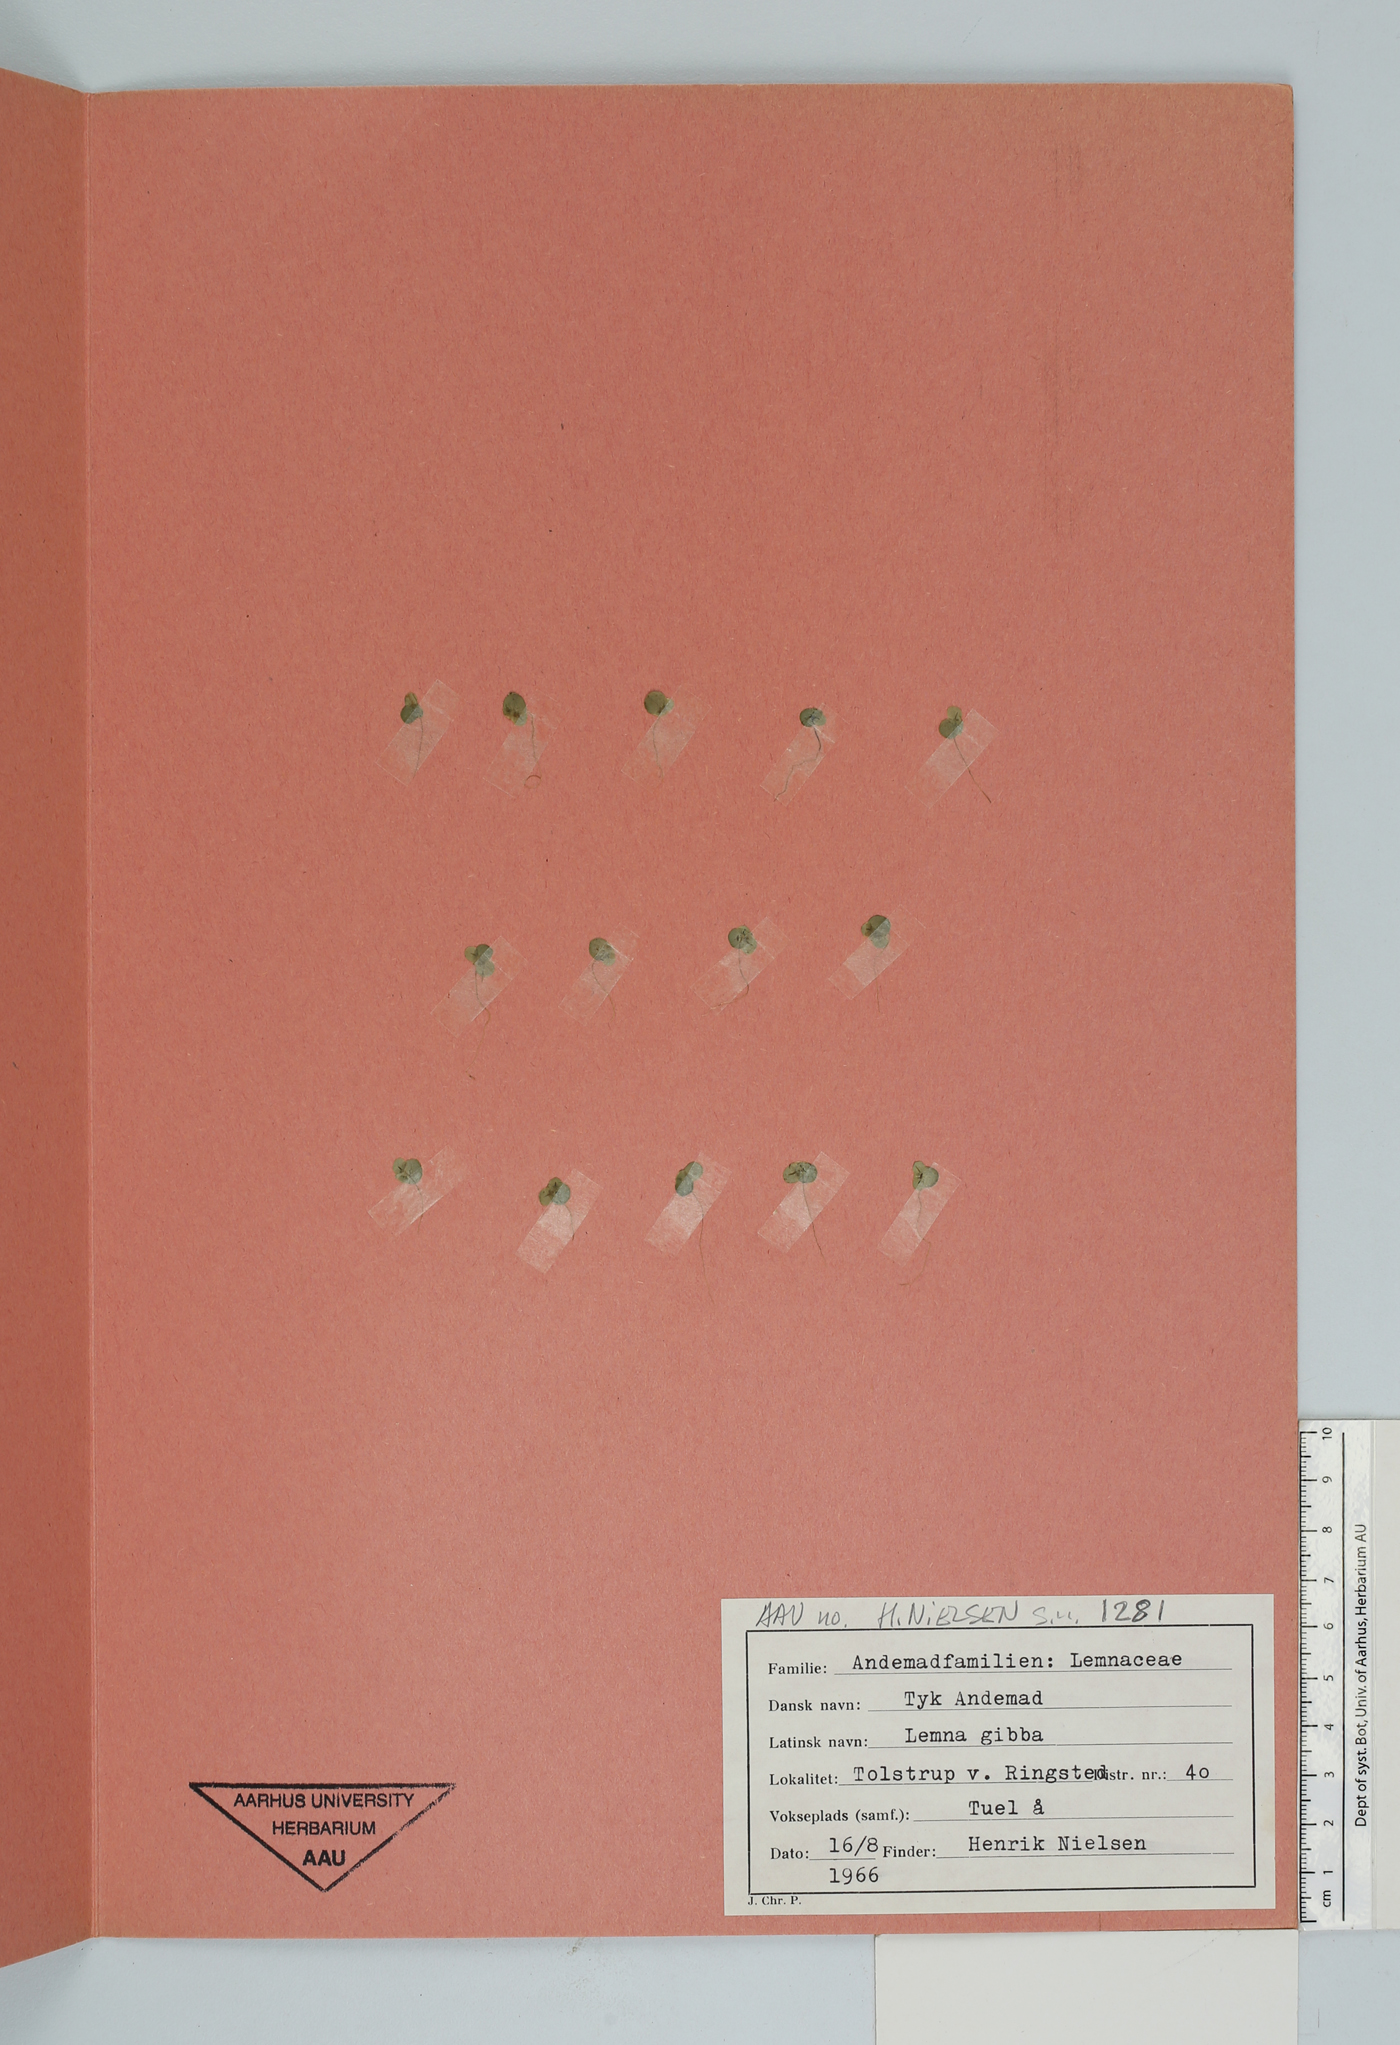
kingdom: Plantae
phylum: Tracheophyta
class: Liliopsida
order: Alismatales
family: Araceae
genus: Lemna
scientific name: Lemna gibba
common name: Fat duckweed
